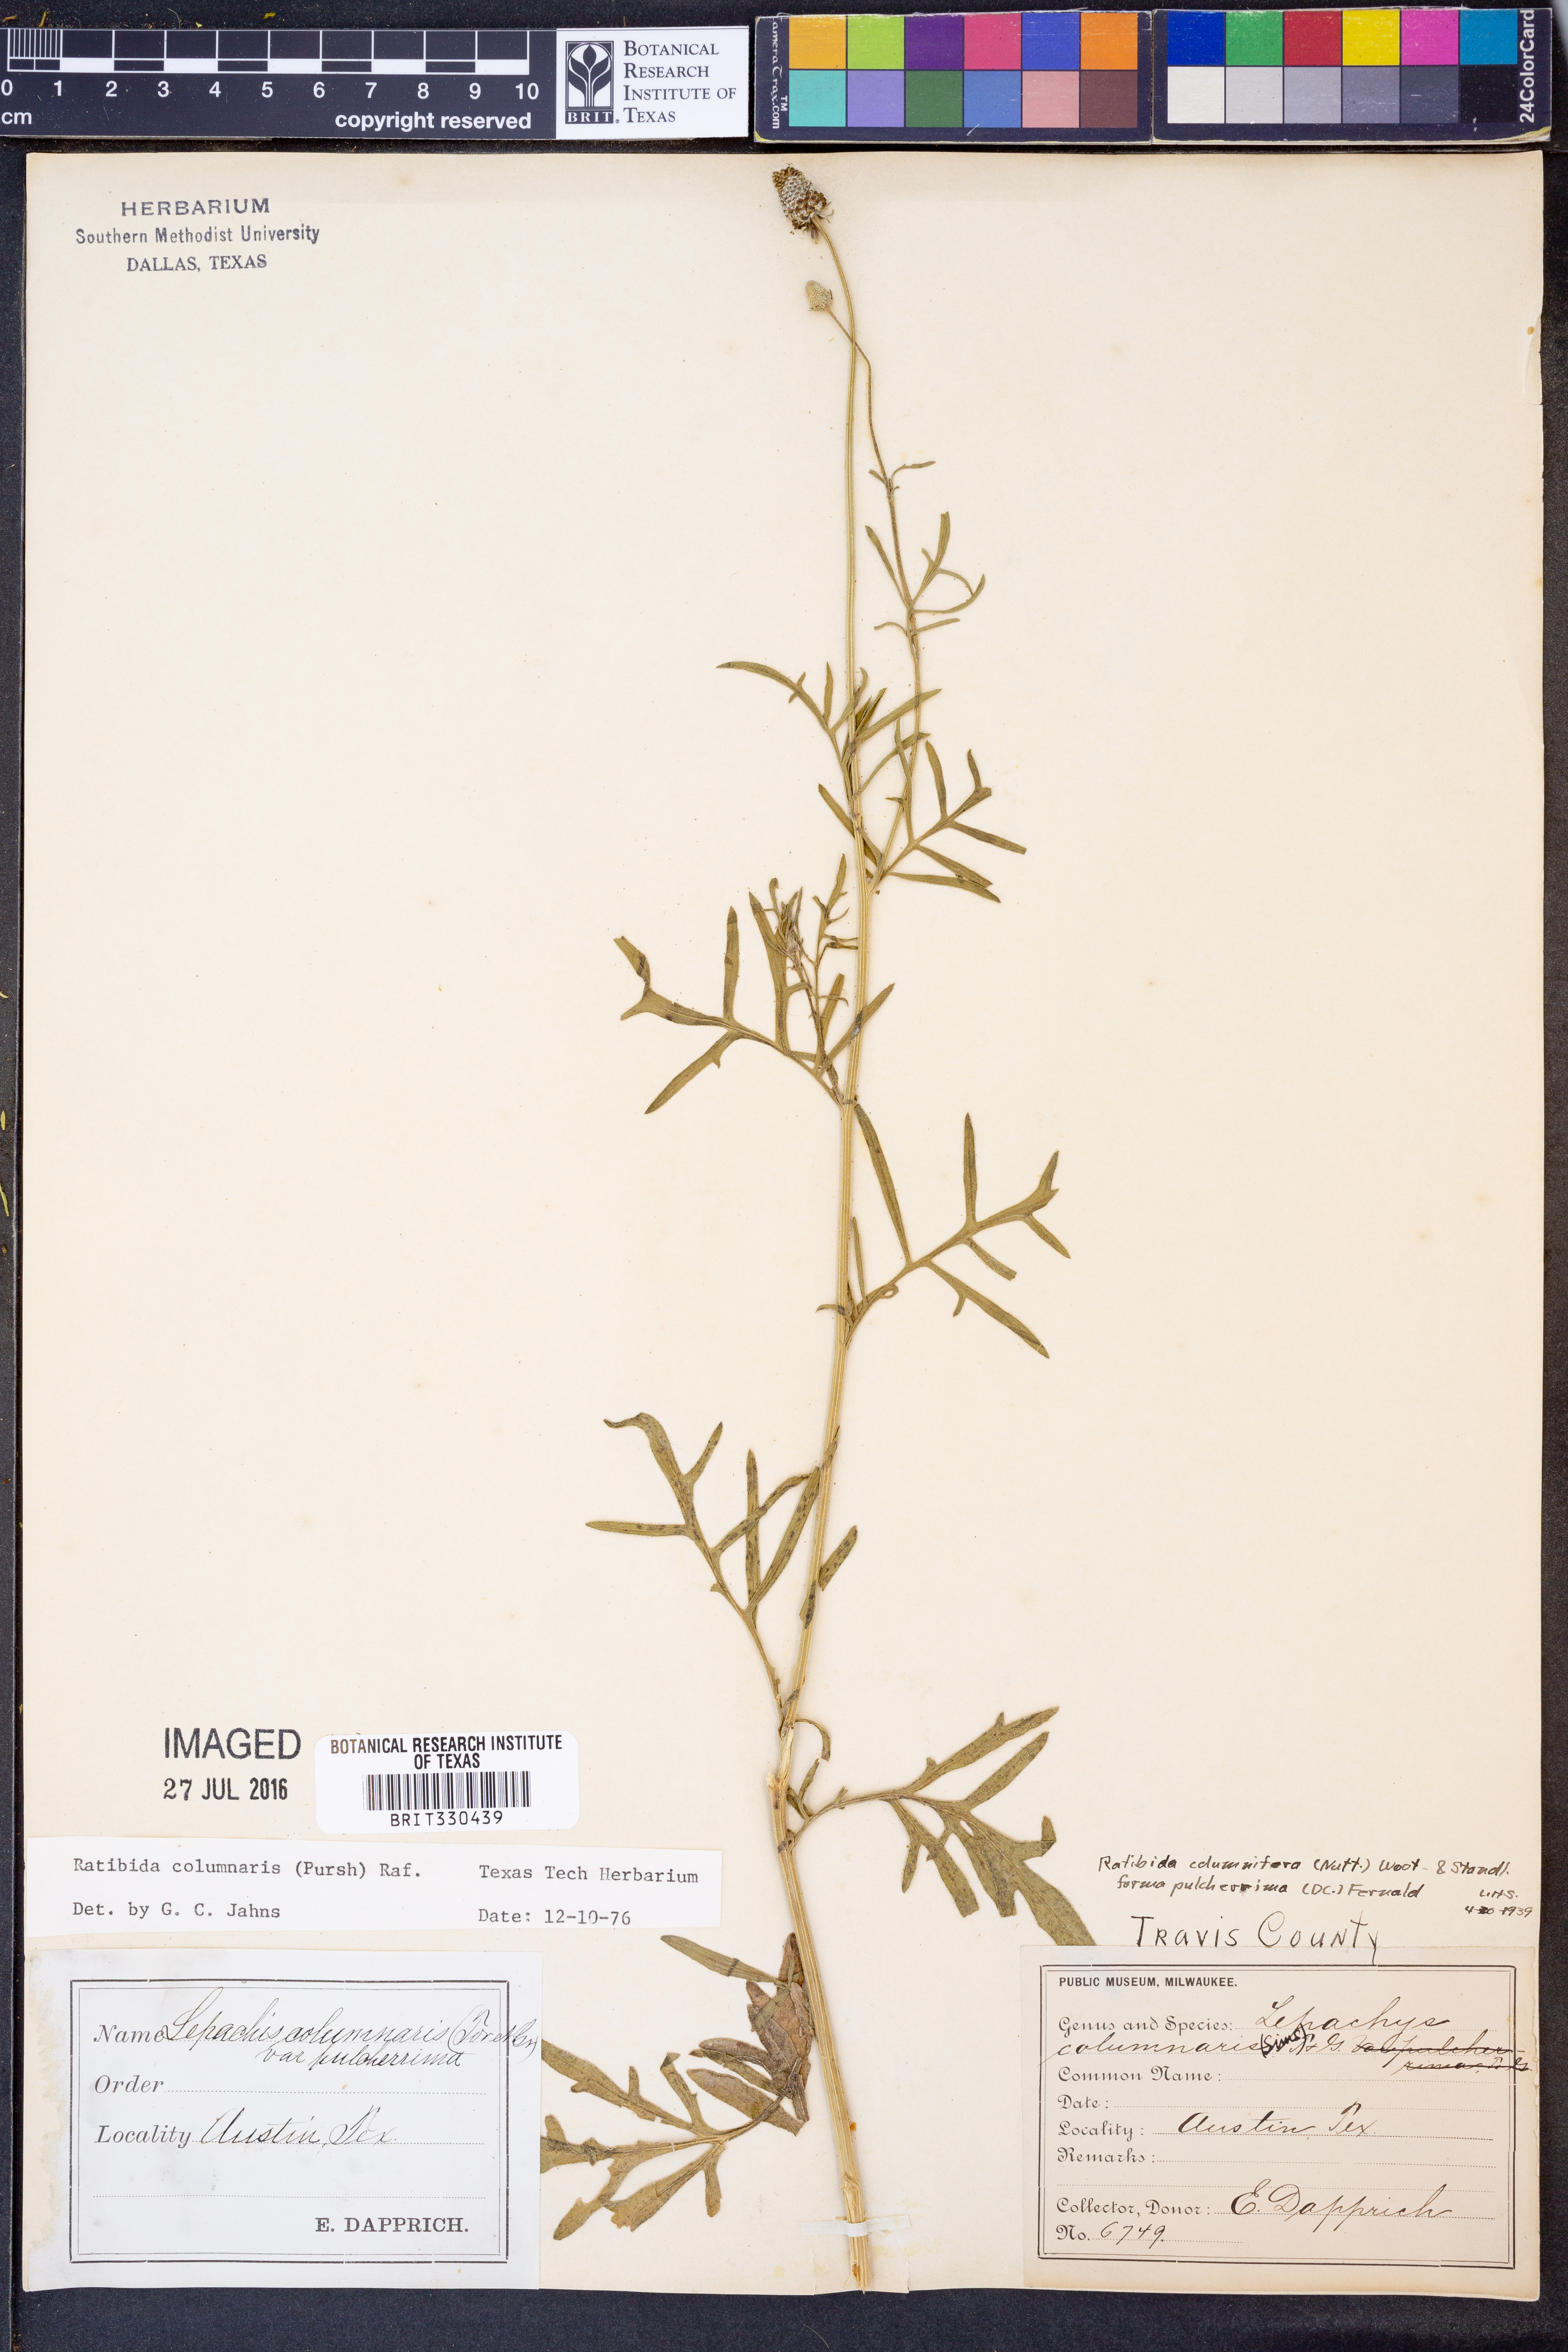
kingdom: Plantae
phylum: Tracheophyta
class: Magnoliopsida
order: Asterales
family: Asteraceae
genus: Ratibida
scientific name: Ratibida columnifera
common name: Prairie coneflower
